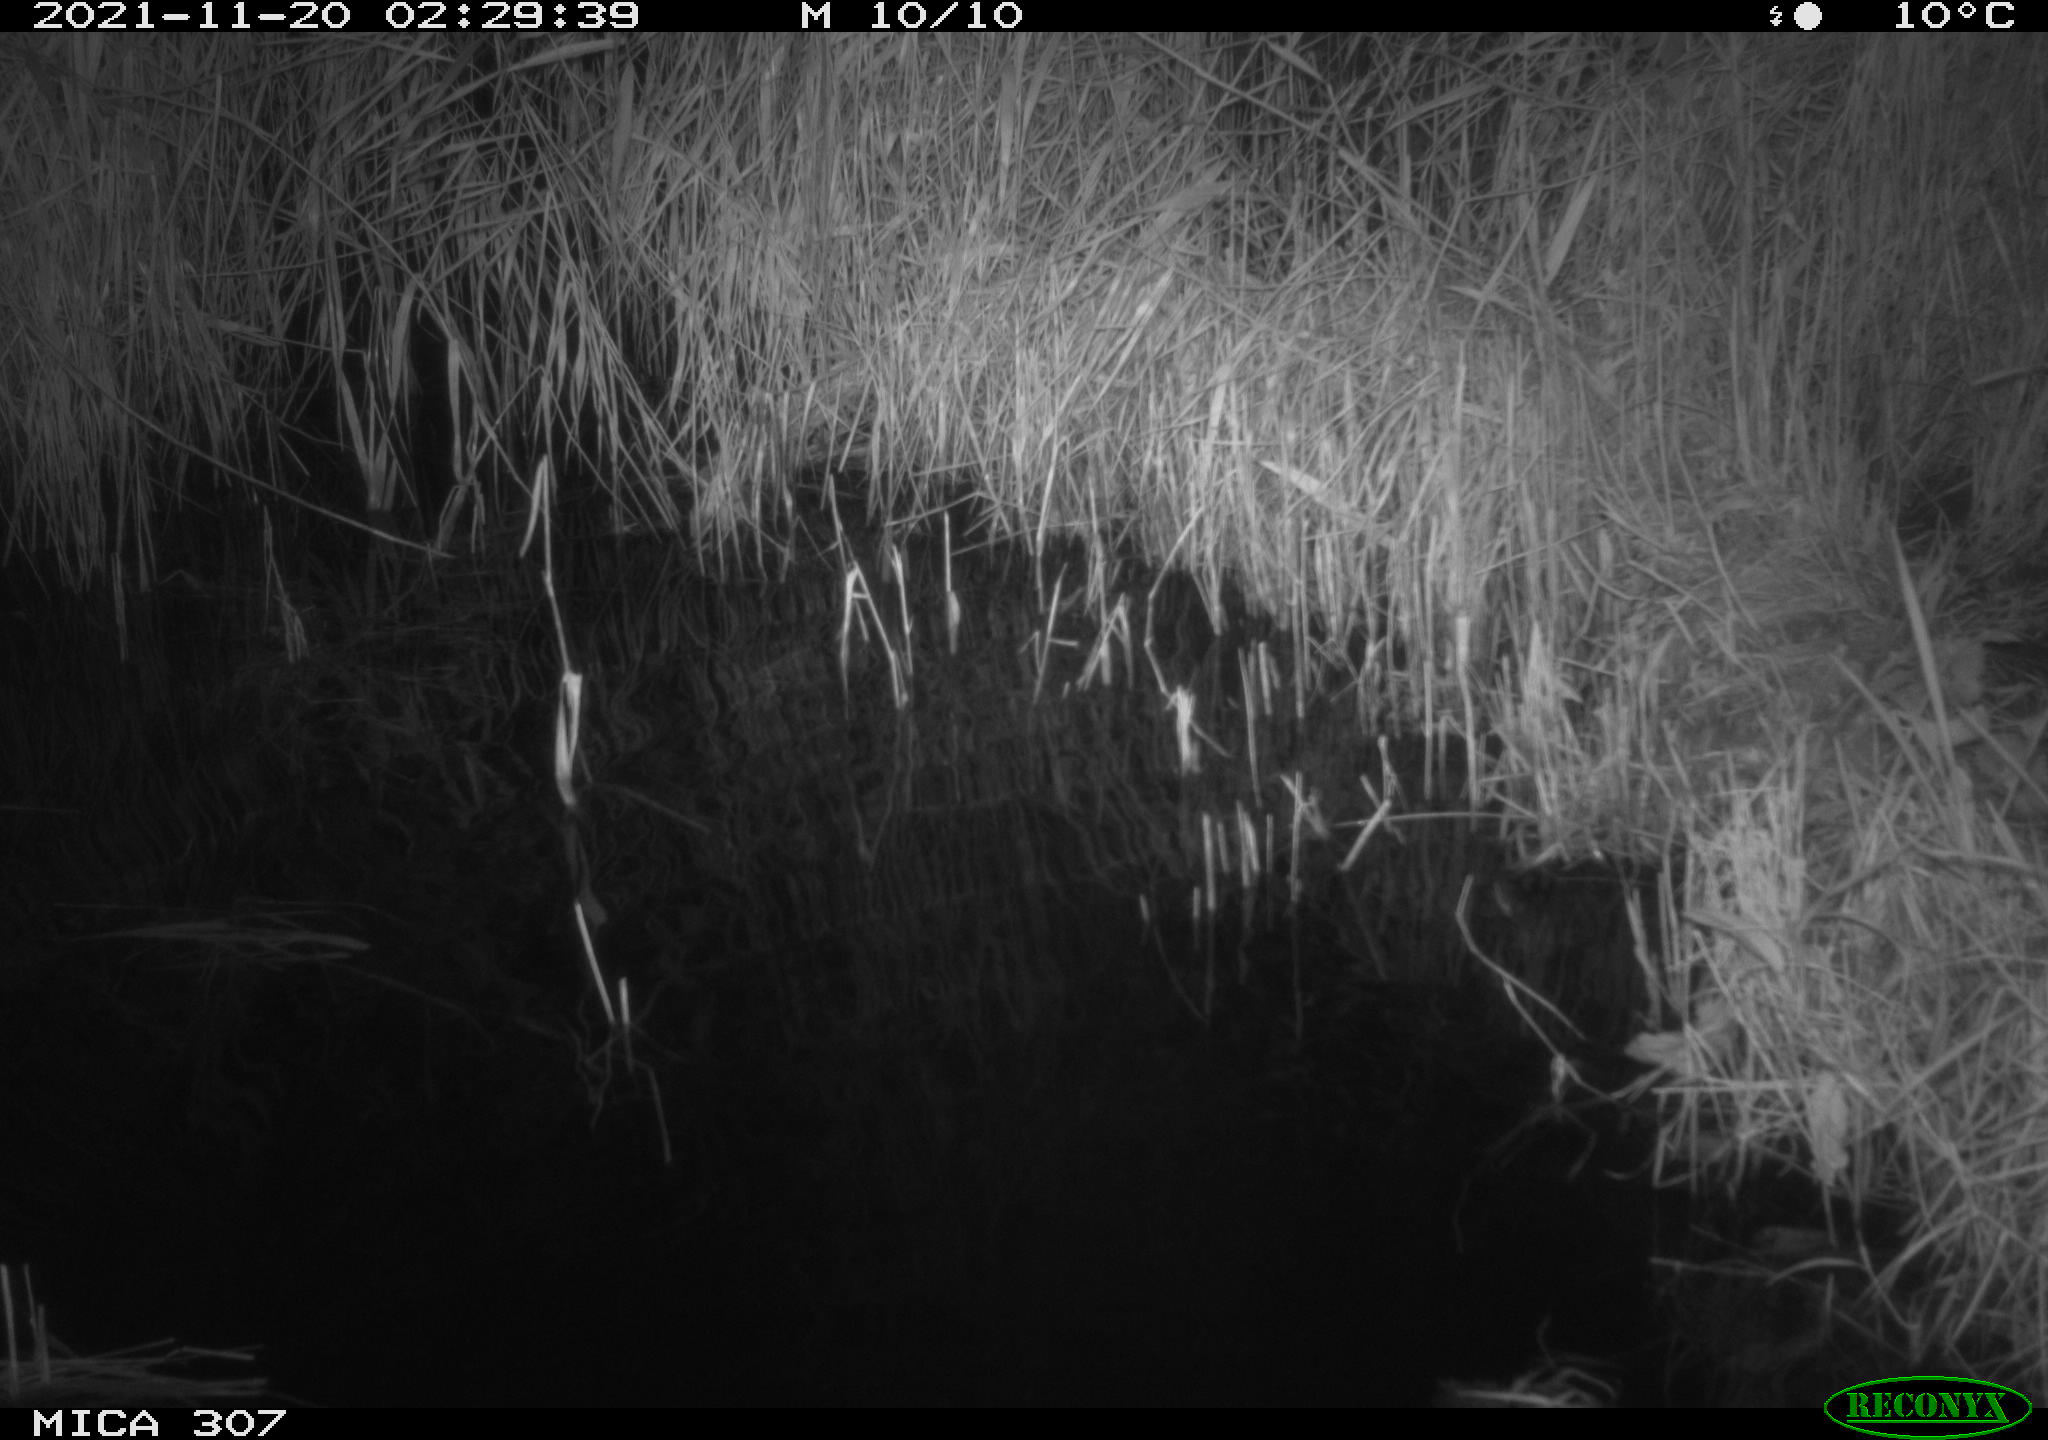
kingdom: Animalia
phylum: Chordata
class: Mammalia
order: Rodentia
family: Muridae
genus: Rattus
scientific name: Rattus norvegicus
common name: Brown rat
